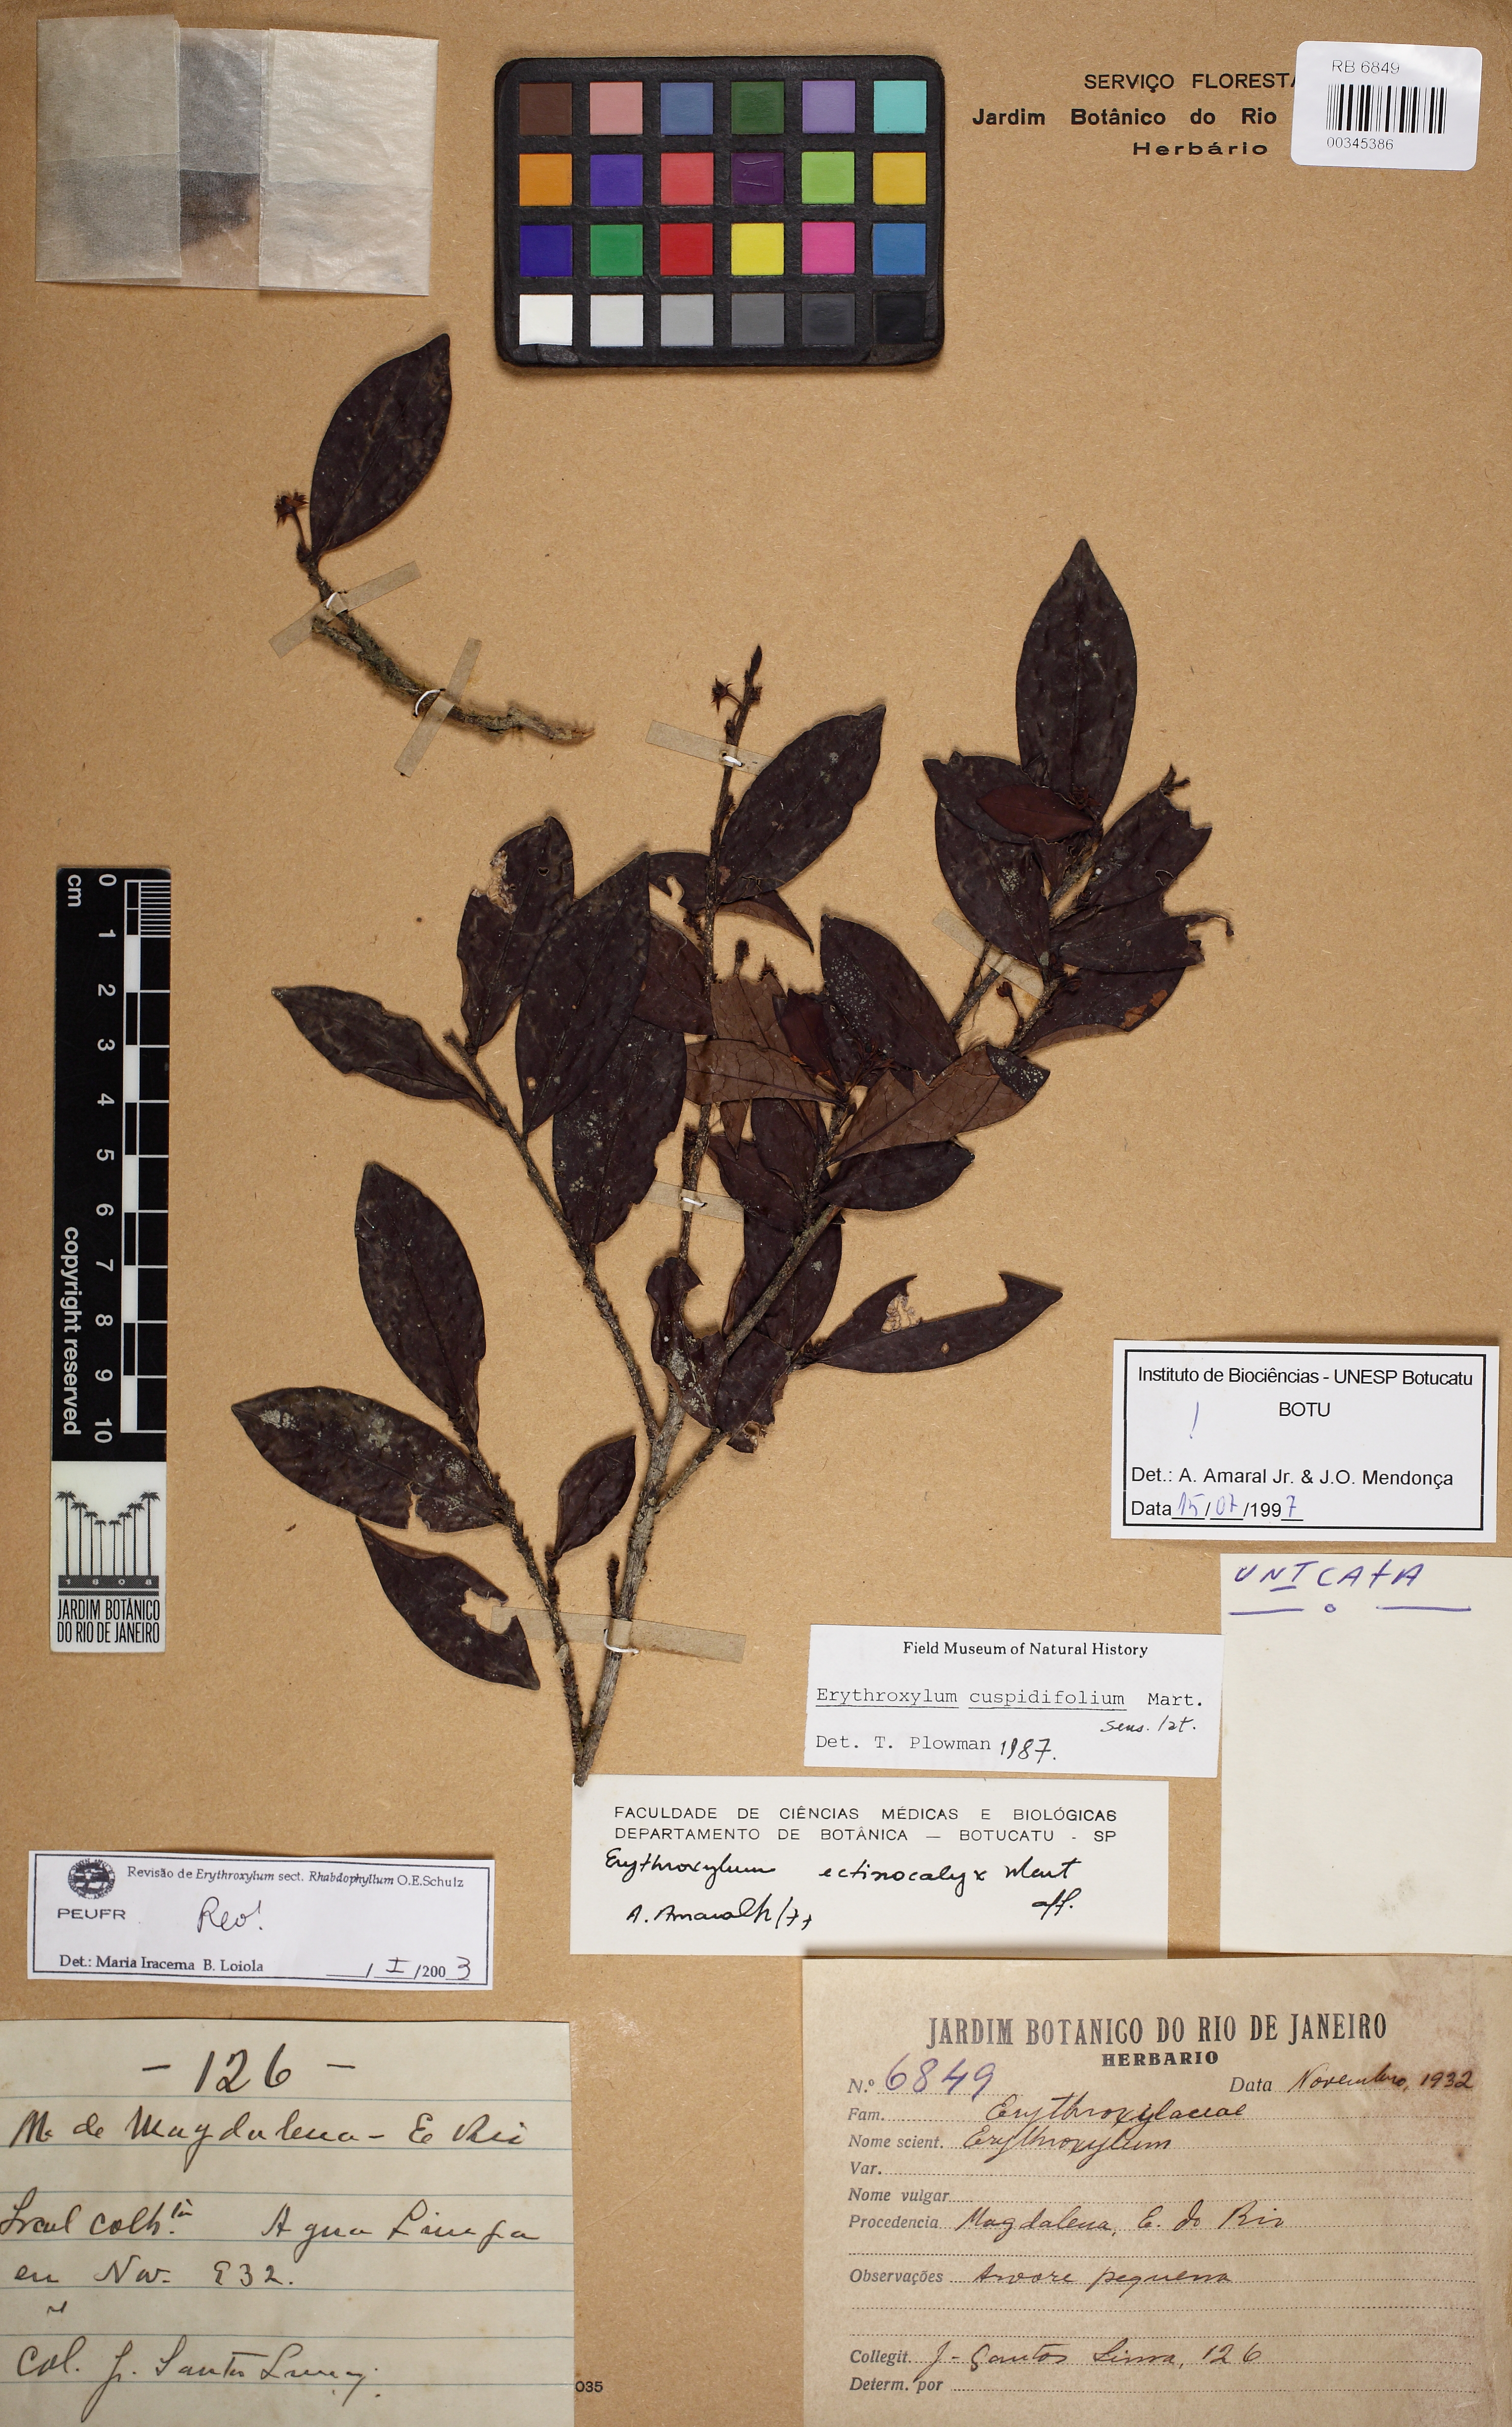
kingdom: Plantae
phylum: Tracheophyta
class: Magnoliopsida
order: Malpighiales
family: Erythroxylaceae
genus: Erythroxylum
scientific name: Erythroxylum cuspidifolium
